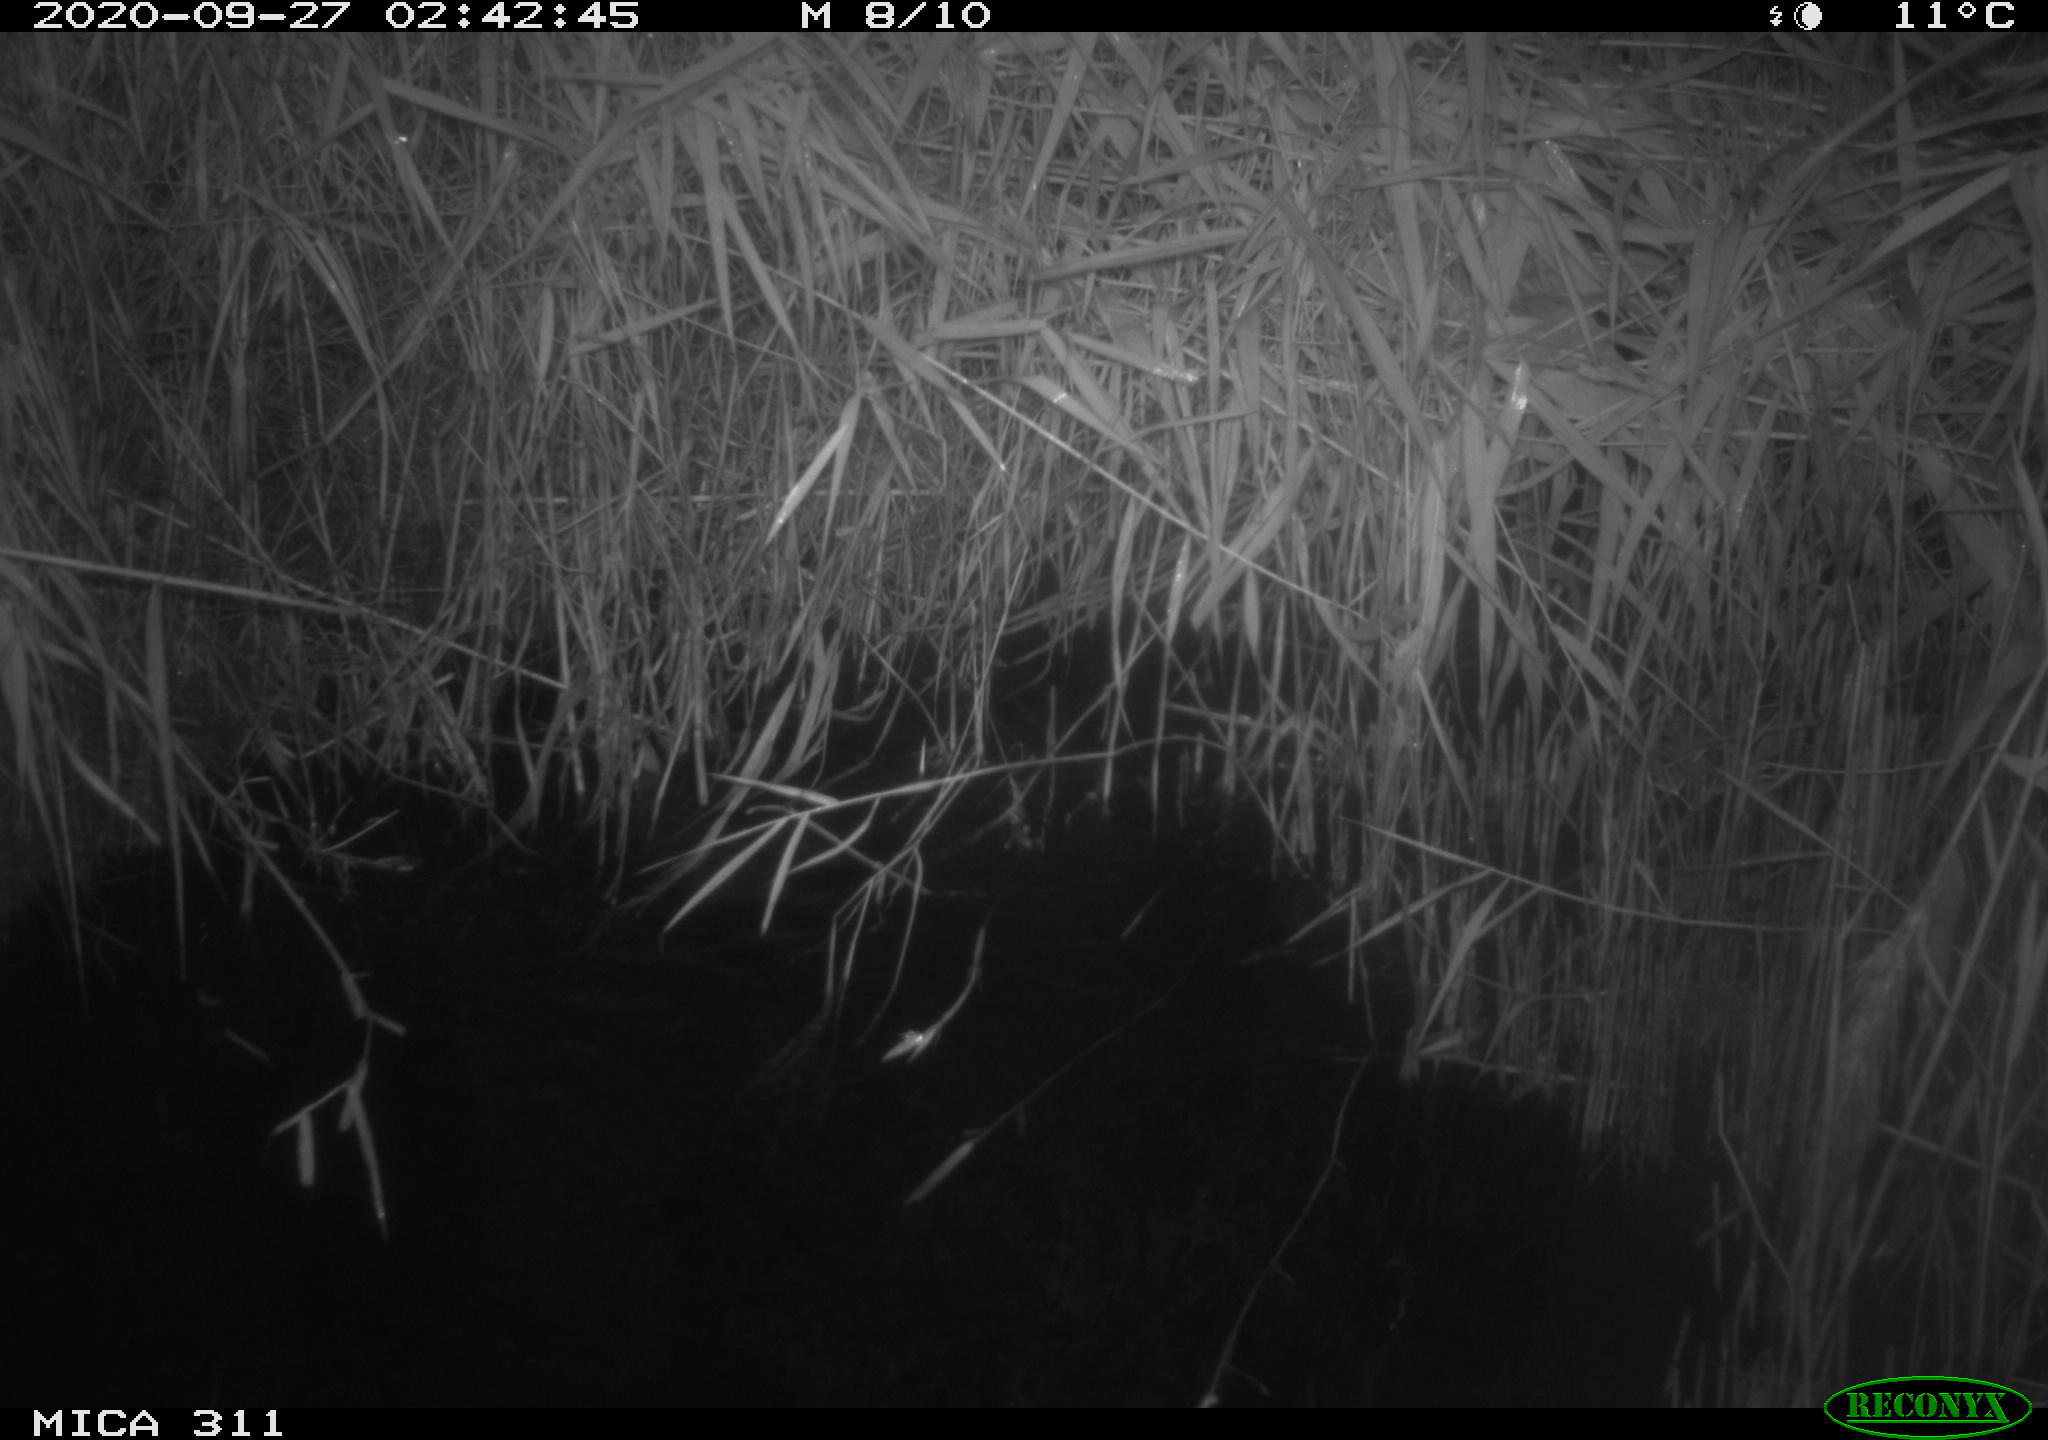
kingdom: Animalia
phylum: Chordata
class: Mammalia
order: Rodentia
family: Muridae
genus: Rattus
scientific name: Rattus norvegicus
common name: Brown rat
